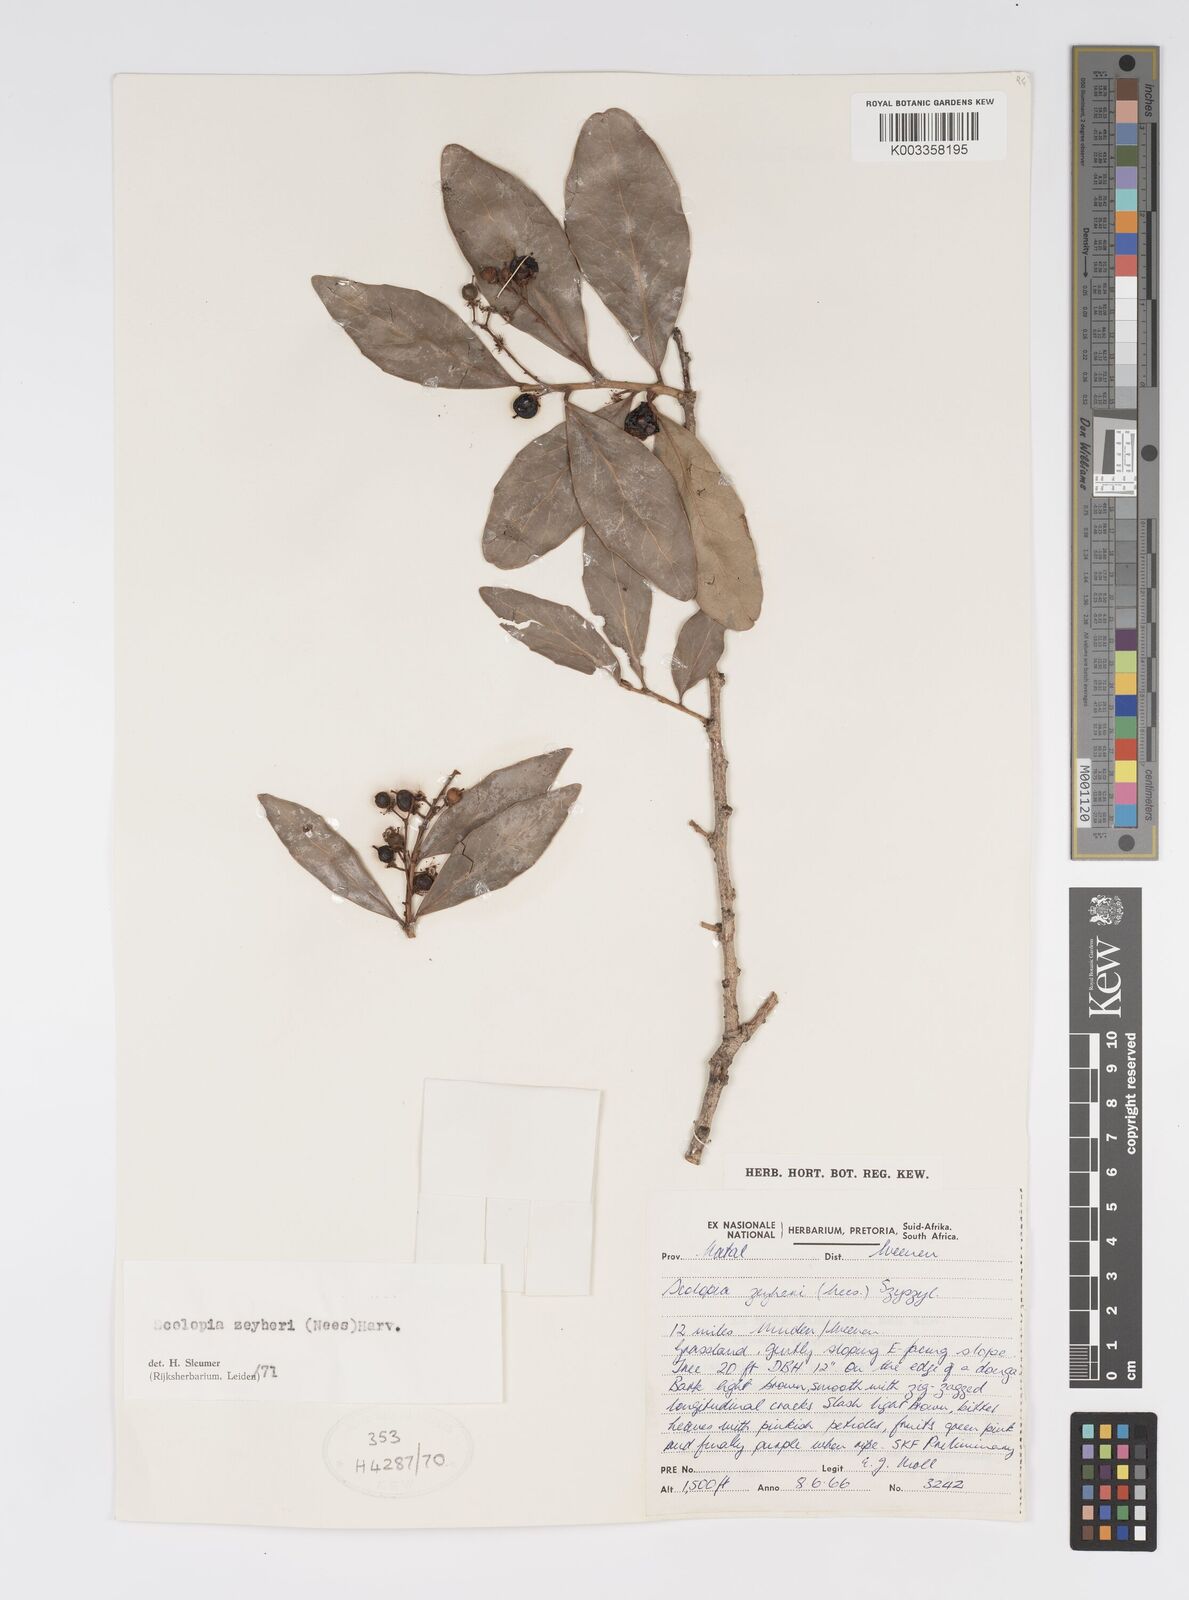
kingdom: Plantae
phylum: Tracheophyta
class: Magnoliopsida
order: Malpighiales
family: Salicaceae
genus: Scolopia
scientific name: Scolopia zeyheri
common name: Thorn pear
